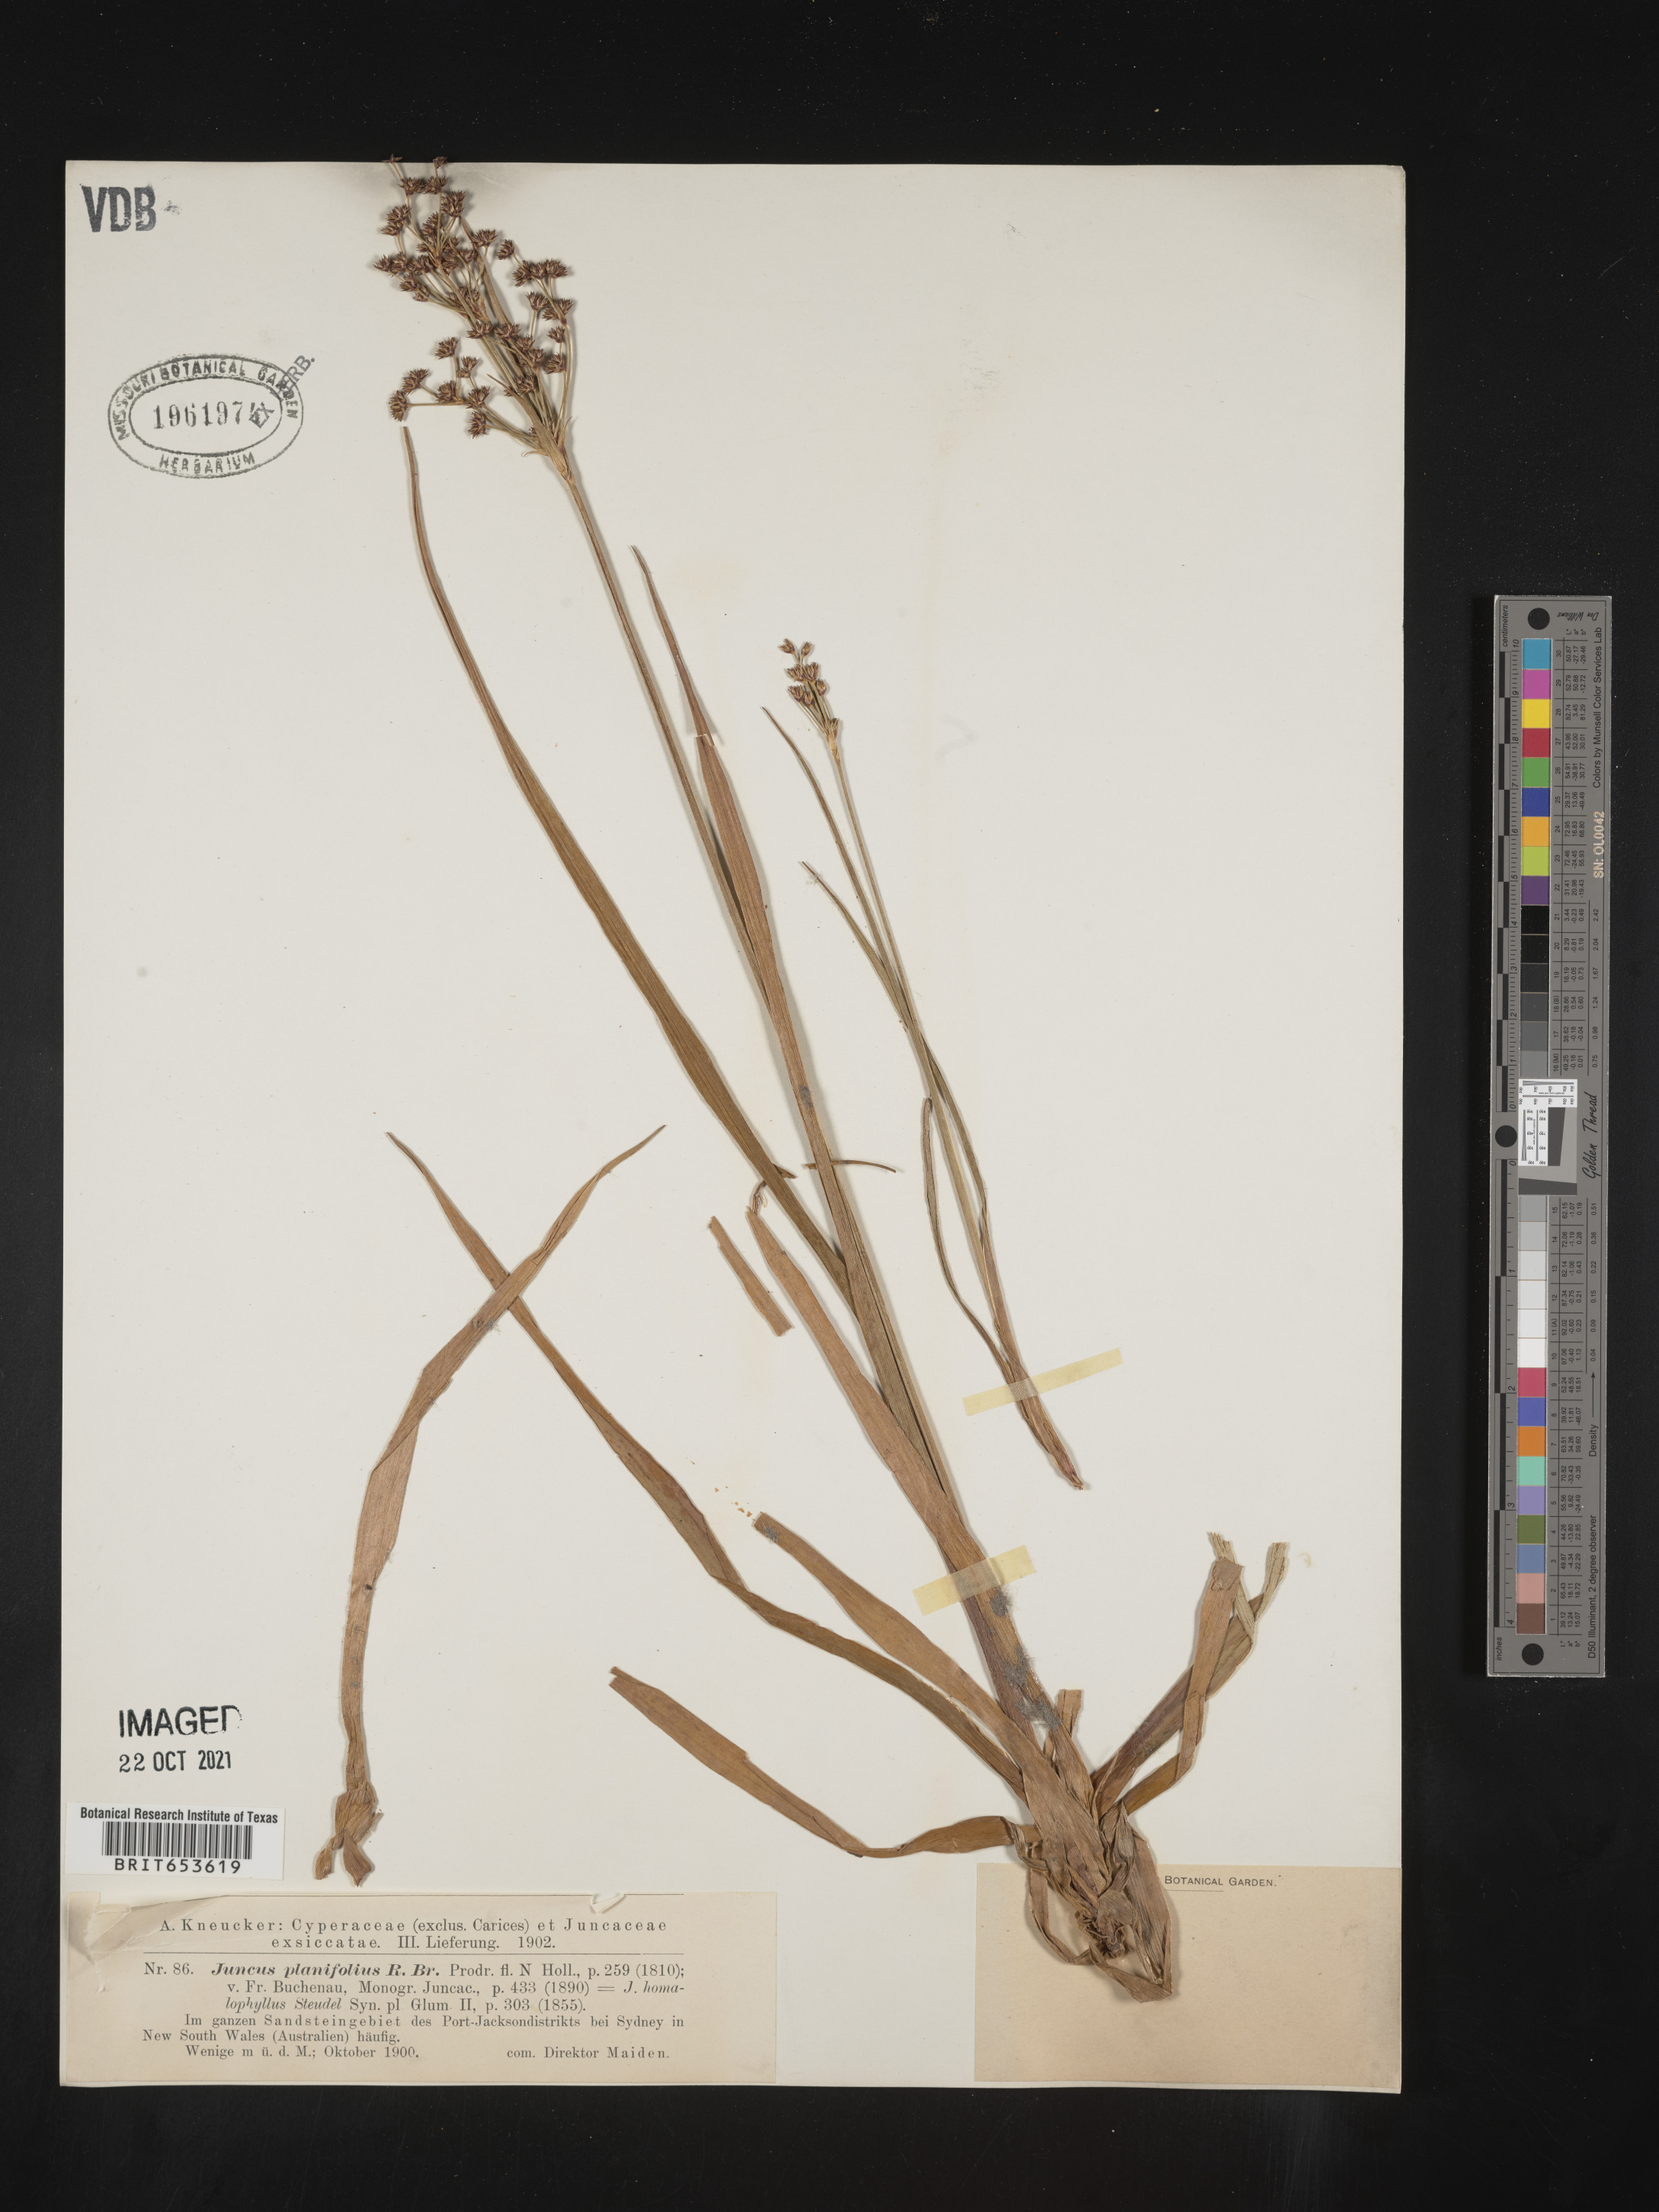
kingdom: Plantae
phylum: Tracheophyta
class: Liliopsida
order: Poales
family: Juncaceae
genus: Juncus
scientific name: Juncus
